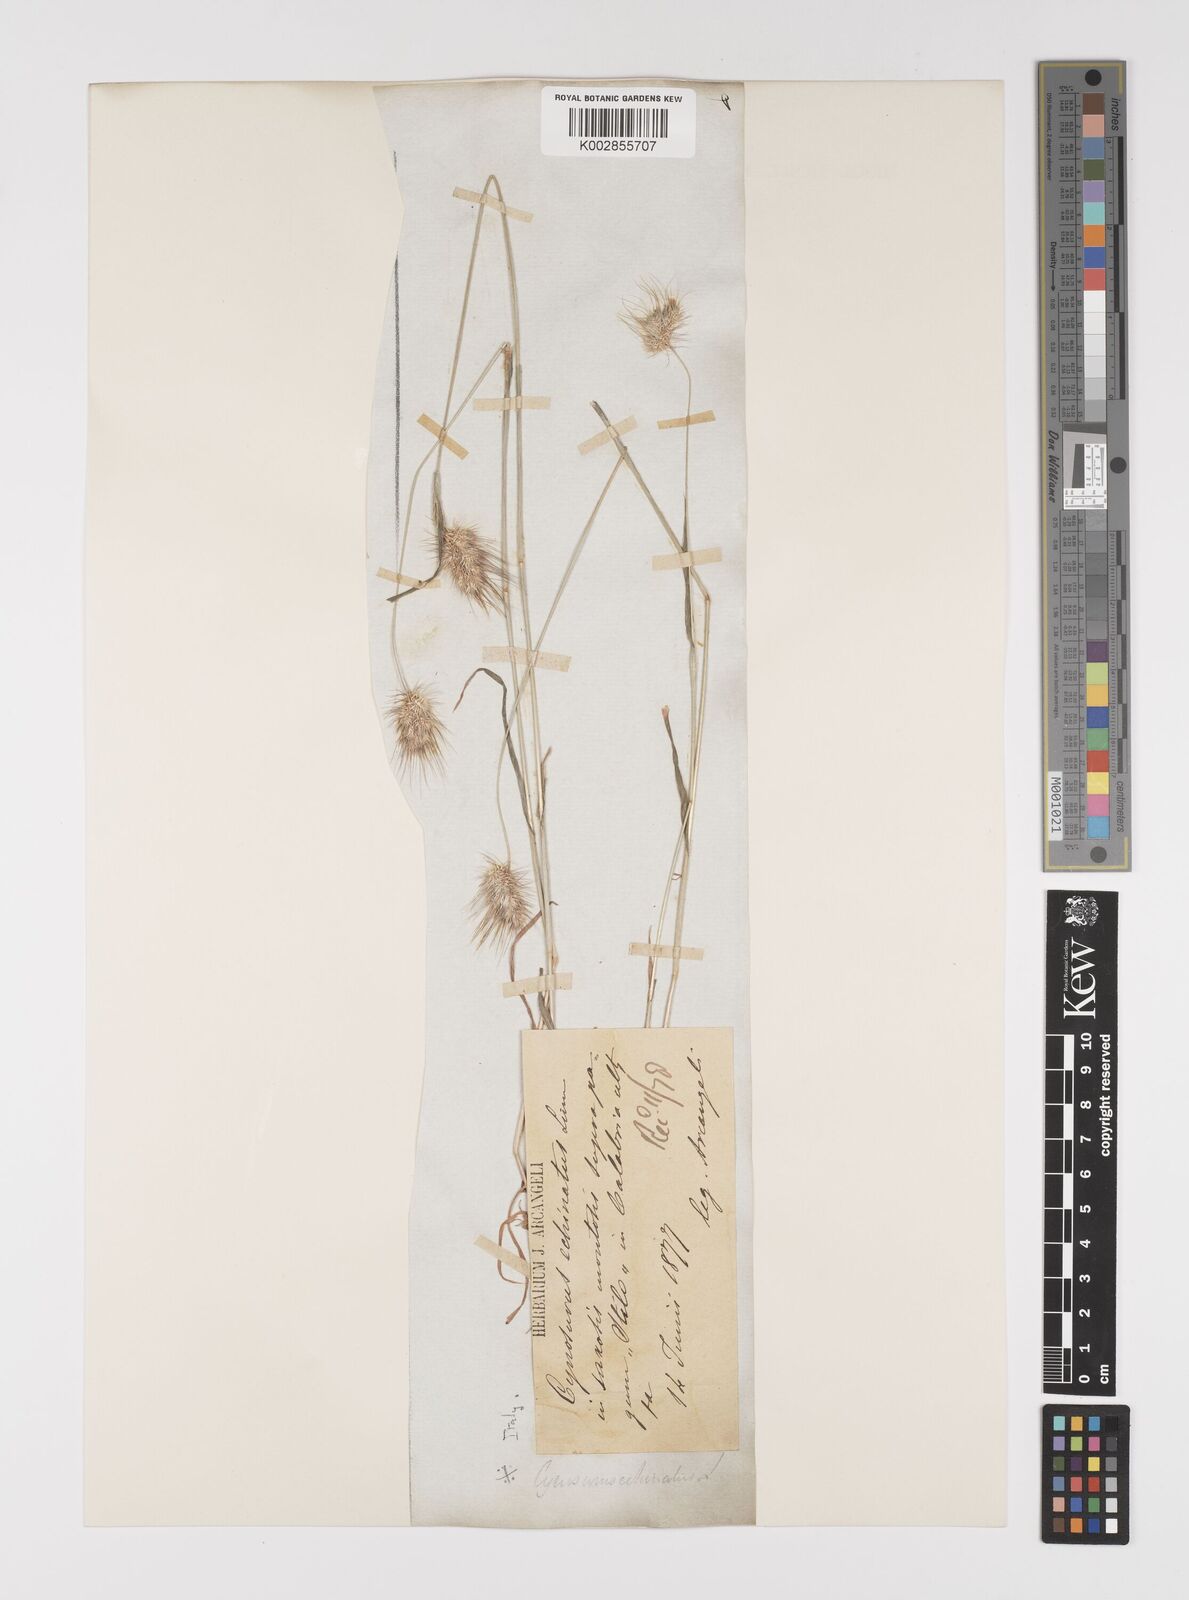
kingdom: Plantae
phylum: Tracheophyta
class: Liliopsida
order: Poales
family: Poaceae
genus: Cynosurus
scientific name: Cynosurus echinatus
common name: Rough dog's-tail
